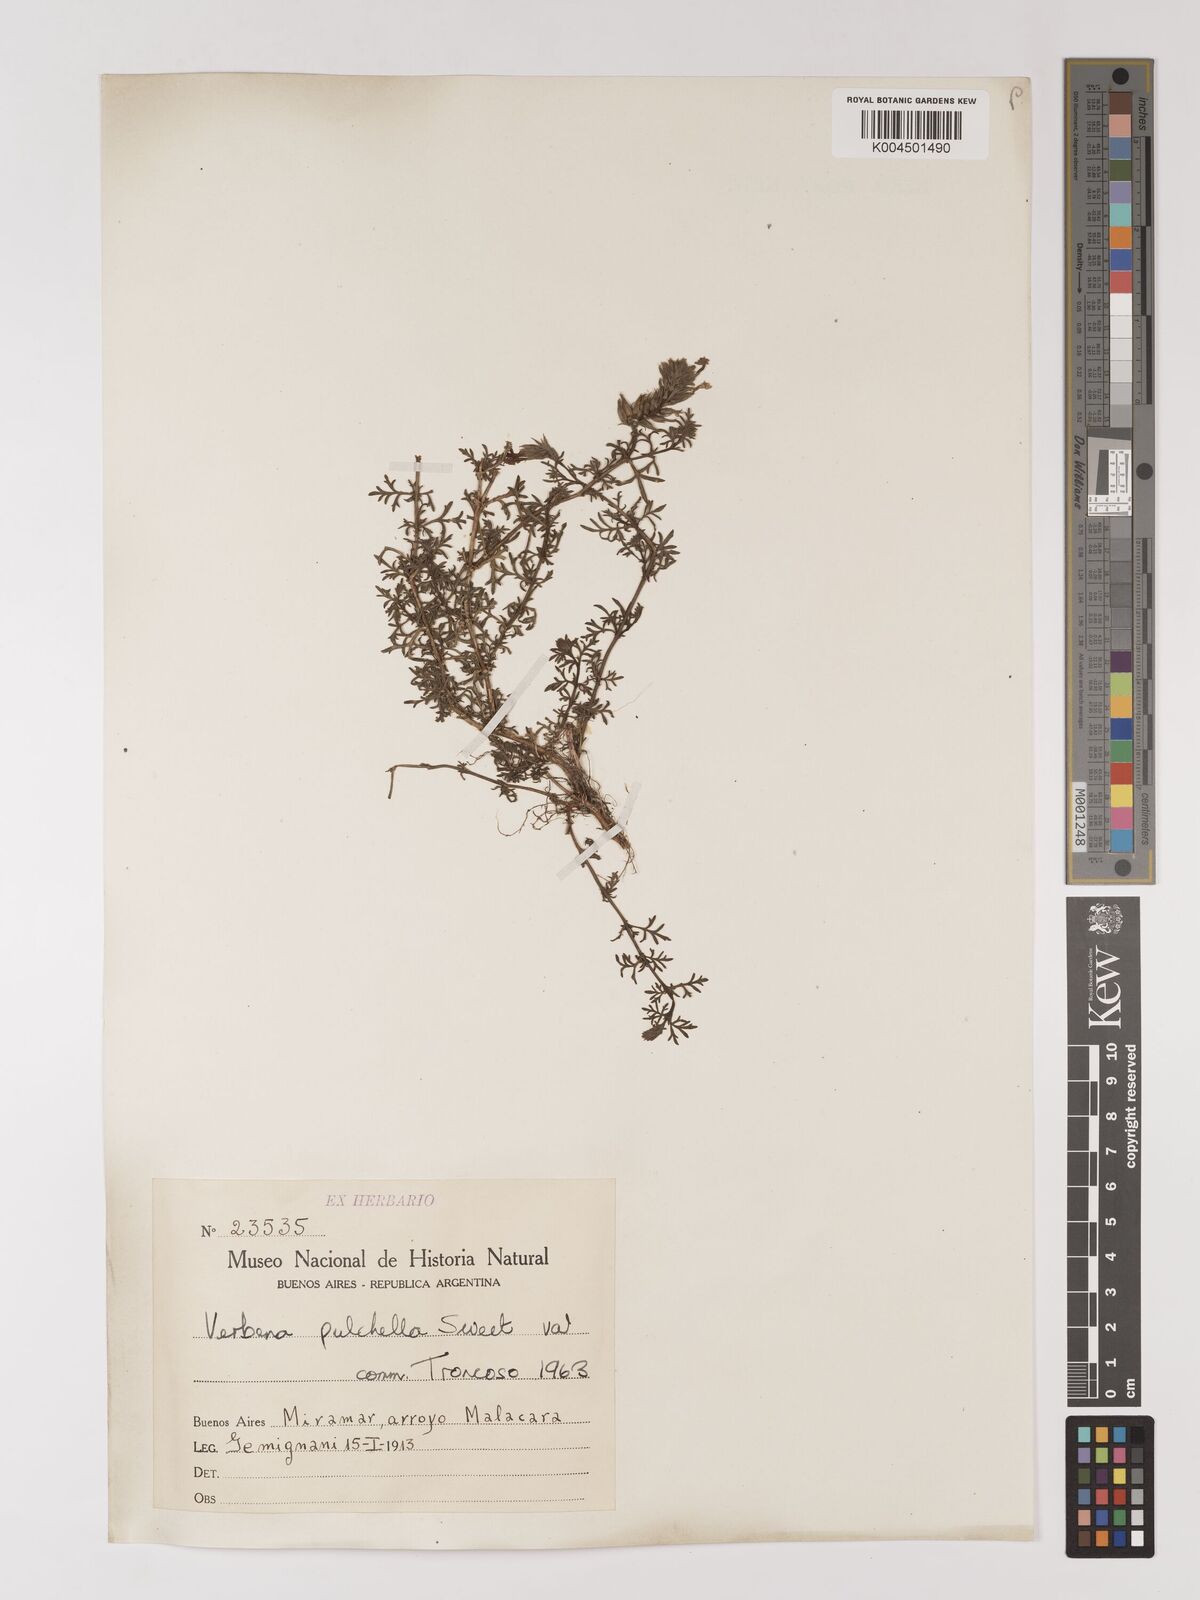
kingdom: Plantae
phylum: Tracheophyta
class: Magnoliopsida
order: Lamiales
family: Verbenaceae
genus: Verbena
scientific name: Verbena tenera
